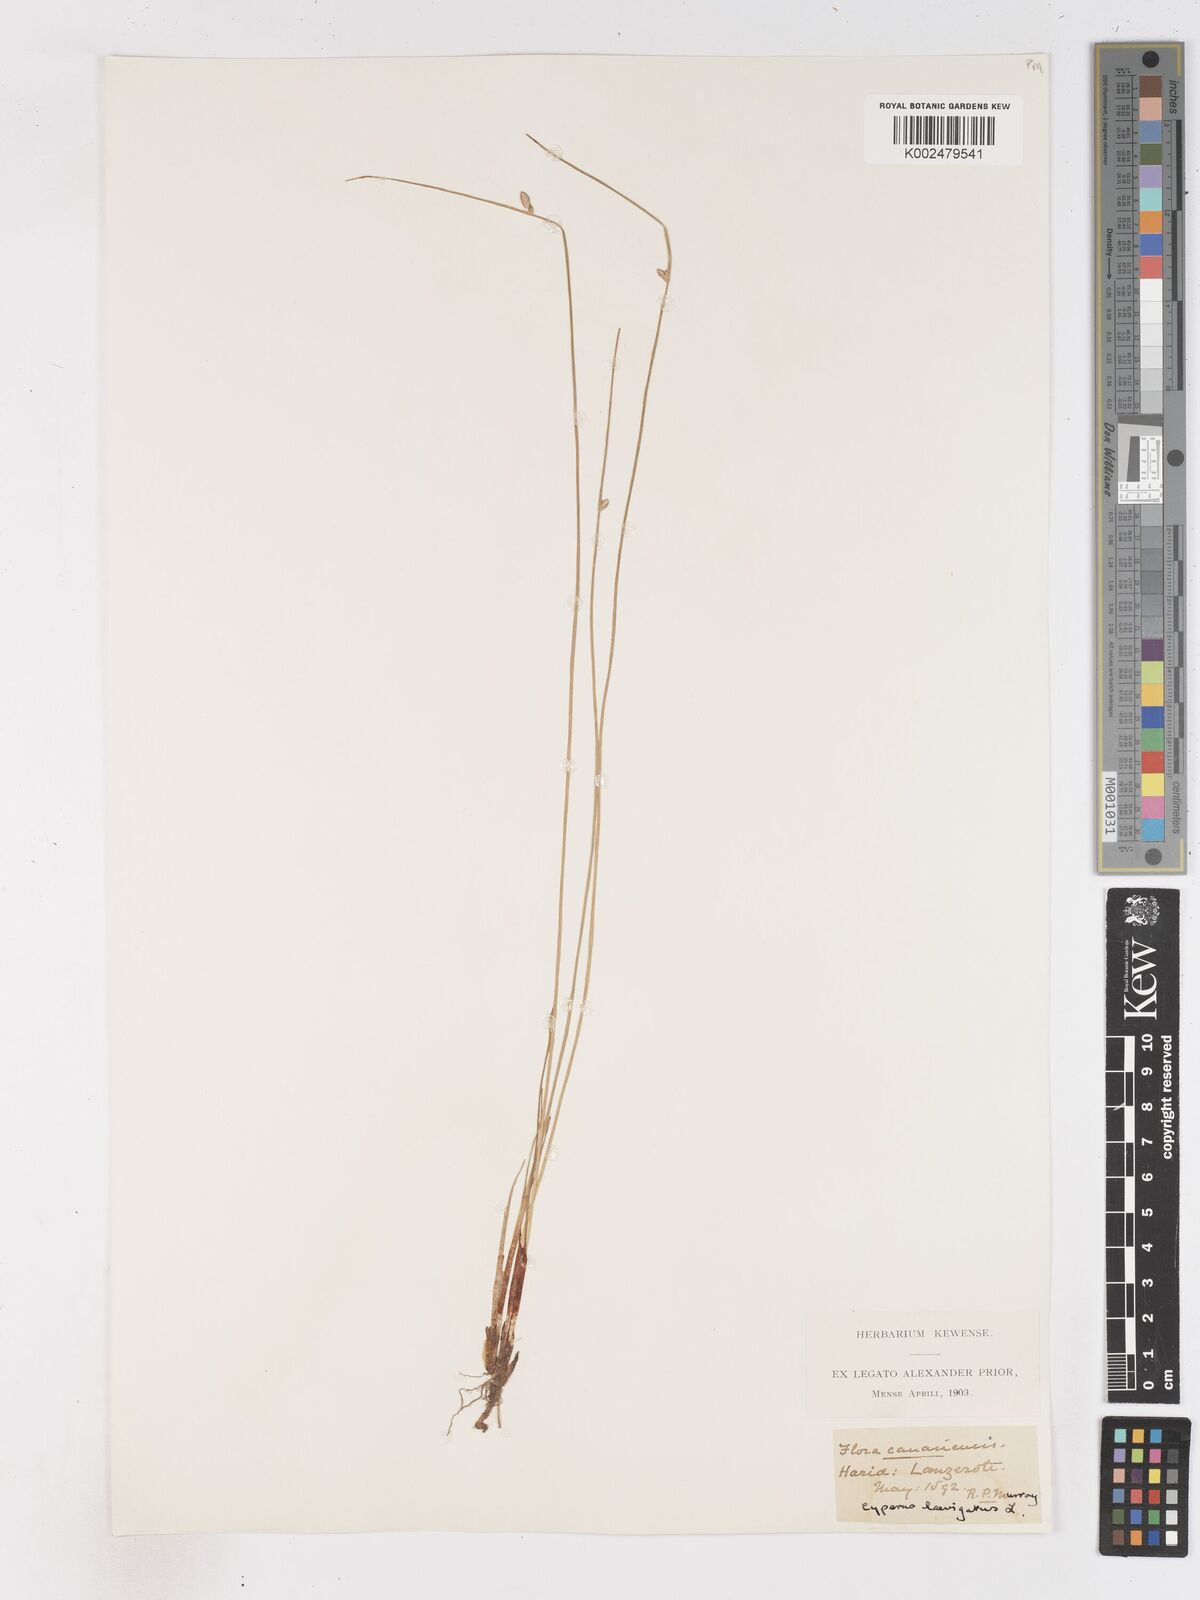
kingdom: Plantae
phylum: Tracheophyta
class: Liliopsida
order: Poales
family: Cyperaceae
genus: Cyperus
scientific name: Cyperus laevigatus
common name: Smooth flat sedge
